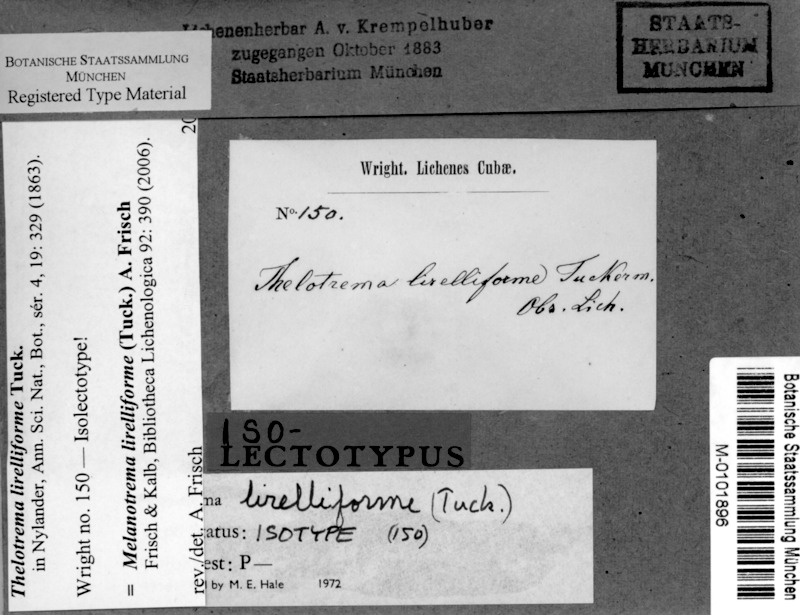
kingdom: Fungi
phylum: Ascomycota
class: Lecanoromycetes
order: Ostropales
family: Graphidaceae
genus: Melanotrema
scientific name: Melanotrema lirelliforme
